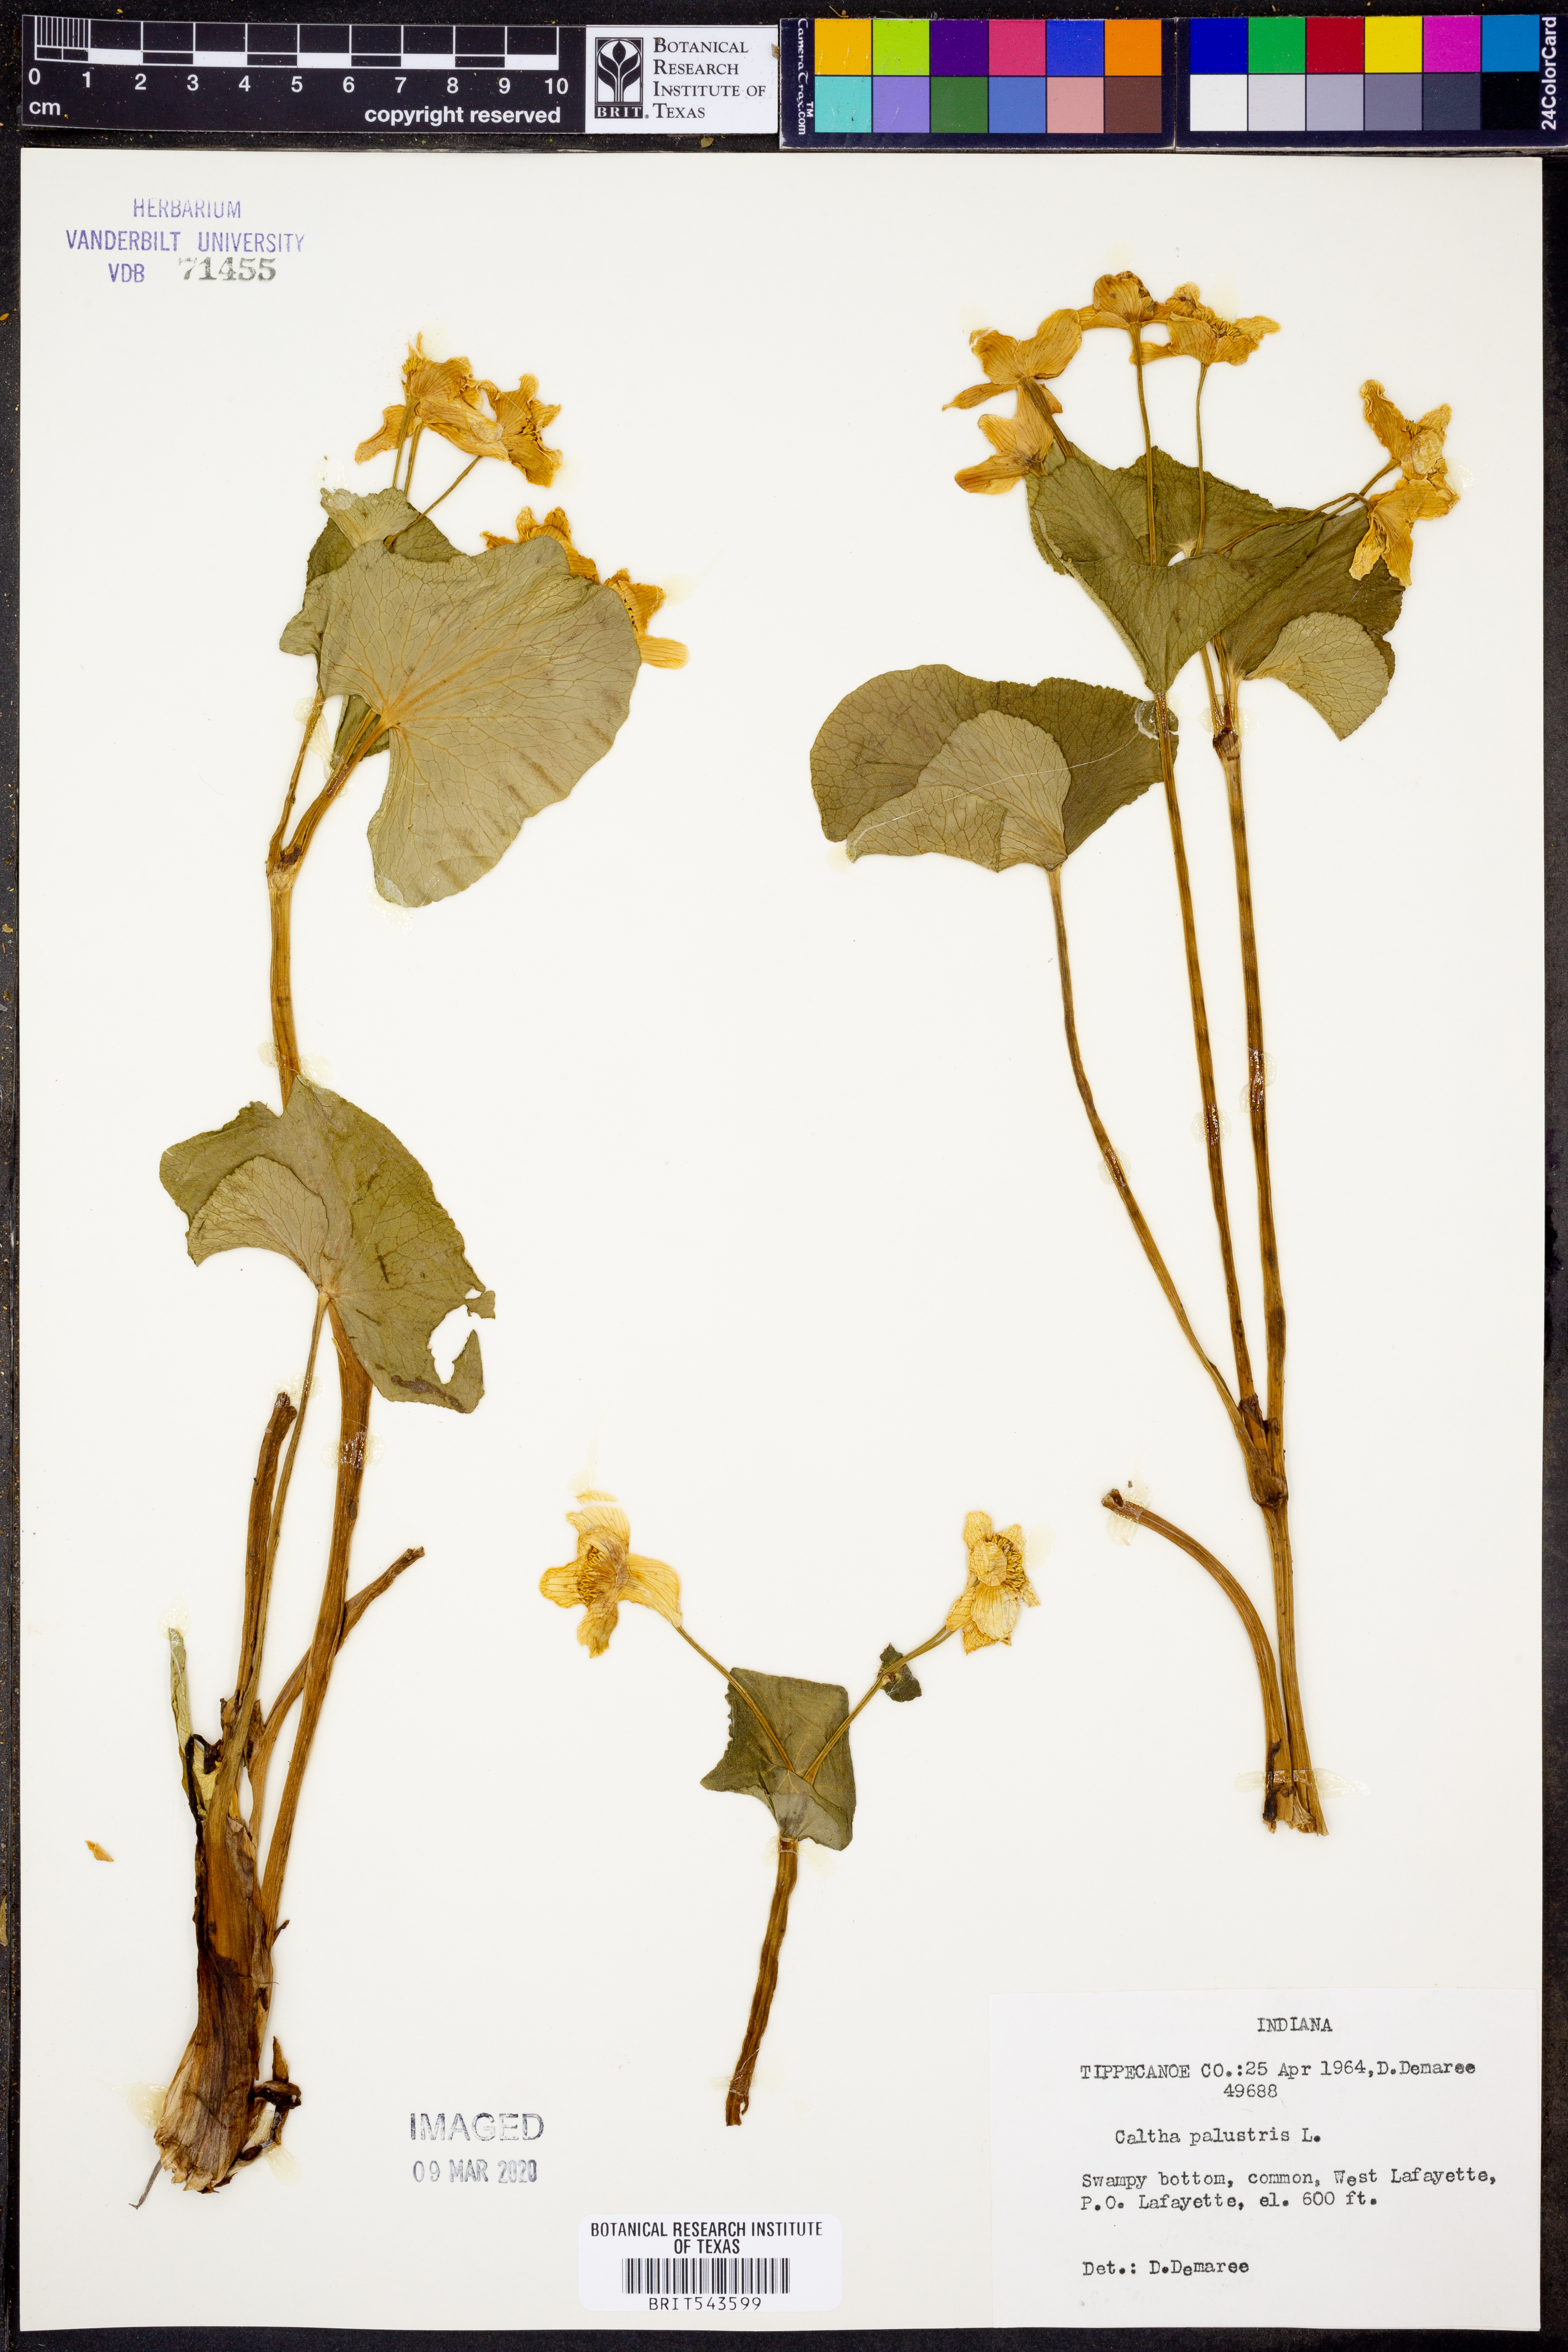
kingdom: Plantae
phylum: Tracheophyta
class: Magnoliopsida
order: Ranunculales
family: Ranunculaceae
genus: Caltha
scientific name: Caltha palustris
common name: Marsh marigold
